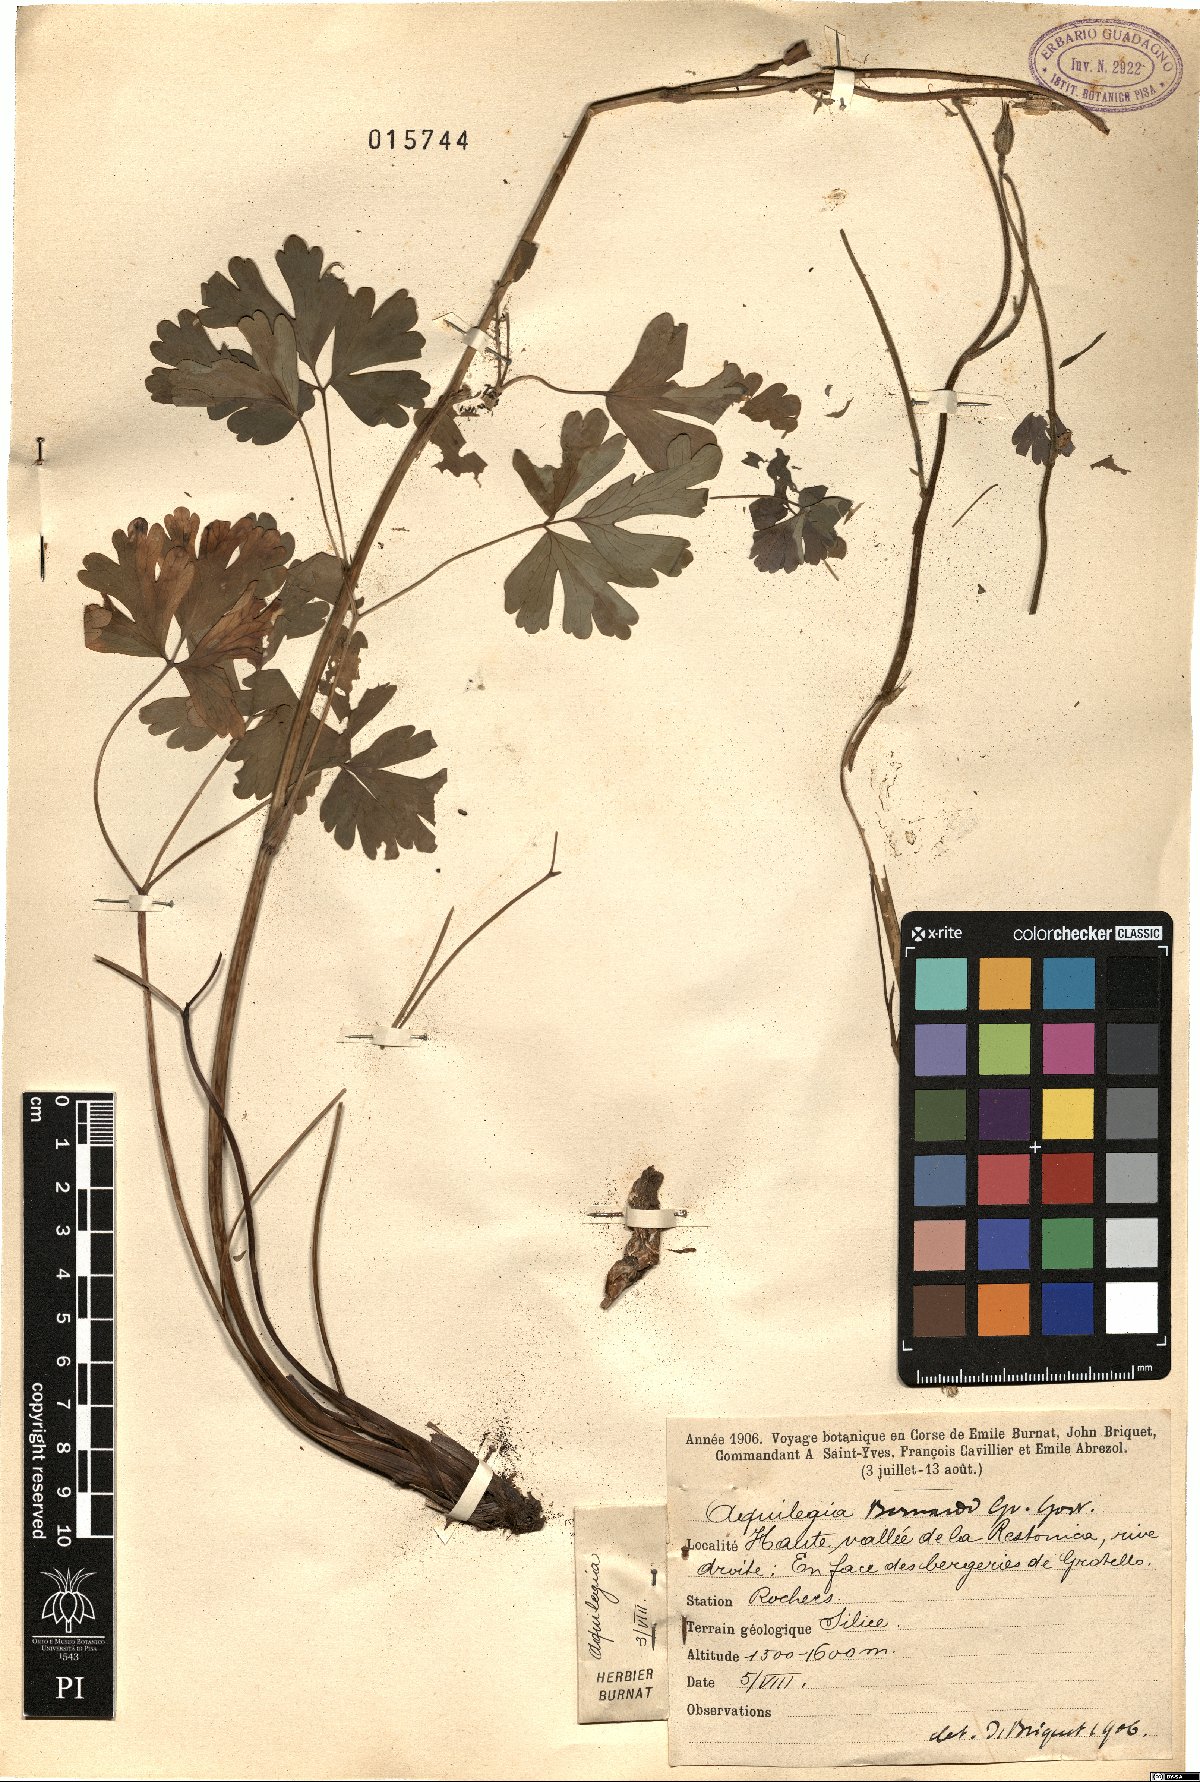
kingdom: Plantae
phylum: Tracheophyta
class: Magnoliopsida
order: Ranunculales
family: Ranunculaceae
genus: Aquilegia
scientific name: Aquilegia bernardii
